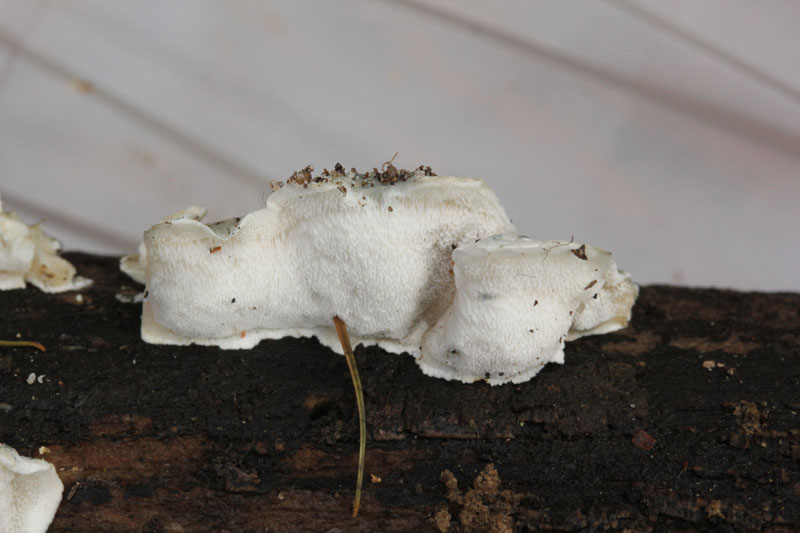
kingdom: Fungi
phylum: Basidiomycota
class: Agaricomycetes
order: Polyporales
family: Polyporaceae
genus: Cyanosporus
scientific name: Cyanosporus alni
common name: blegblå kødporesvamp
